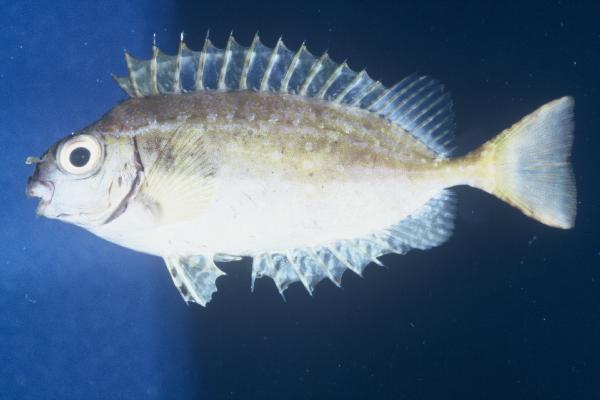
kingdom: Animalia
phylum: Chordata
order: Perciformes
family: Siganidae
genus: Siganus
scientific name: Siganus sutor
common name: Shoemaker spinefoot
